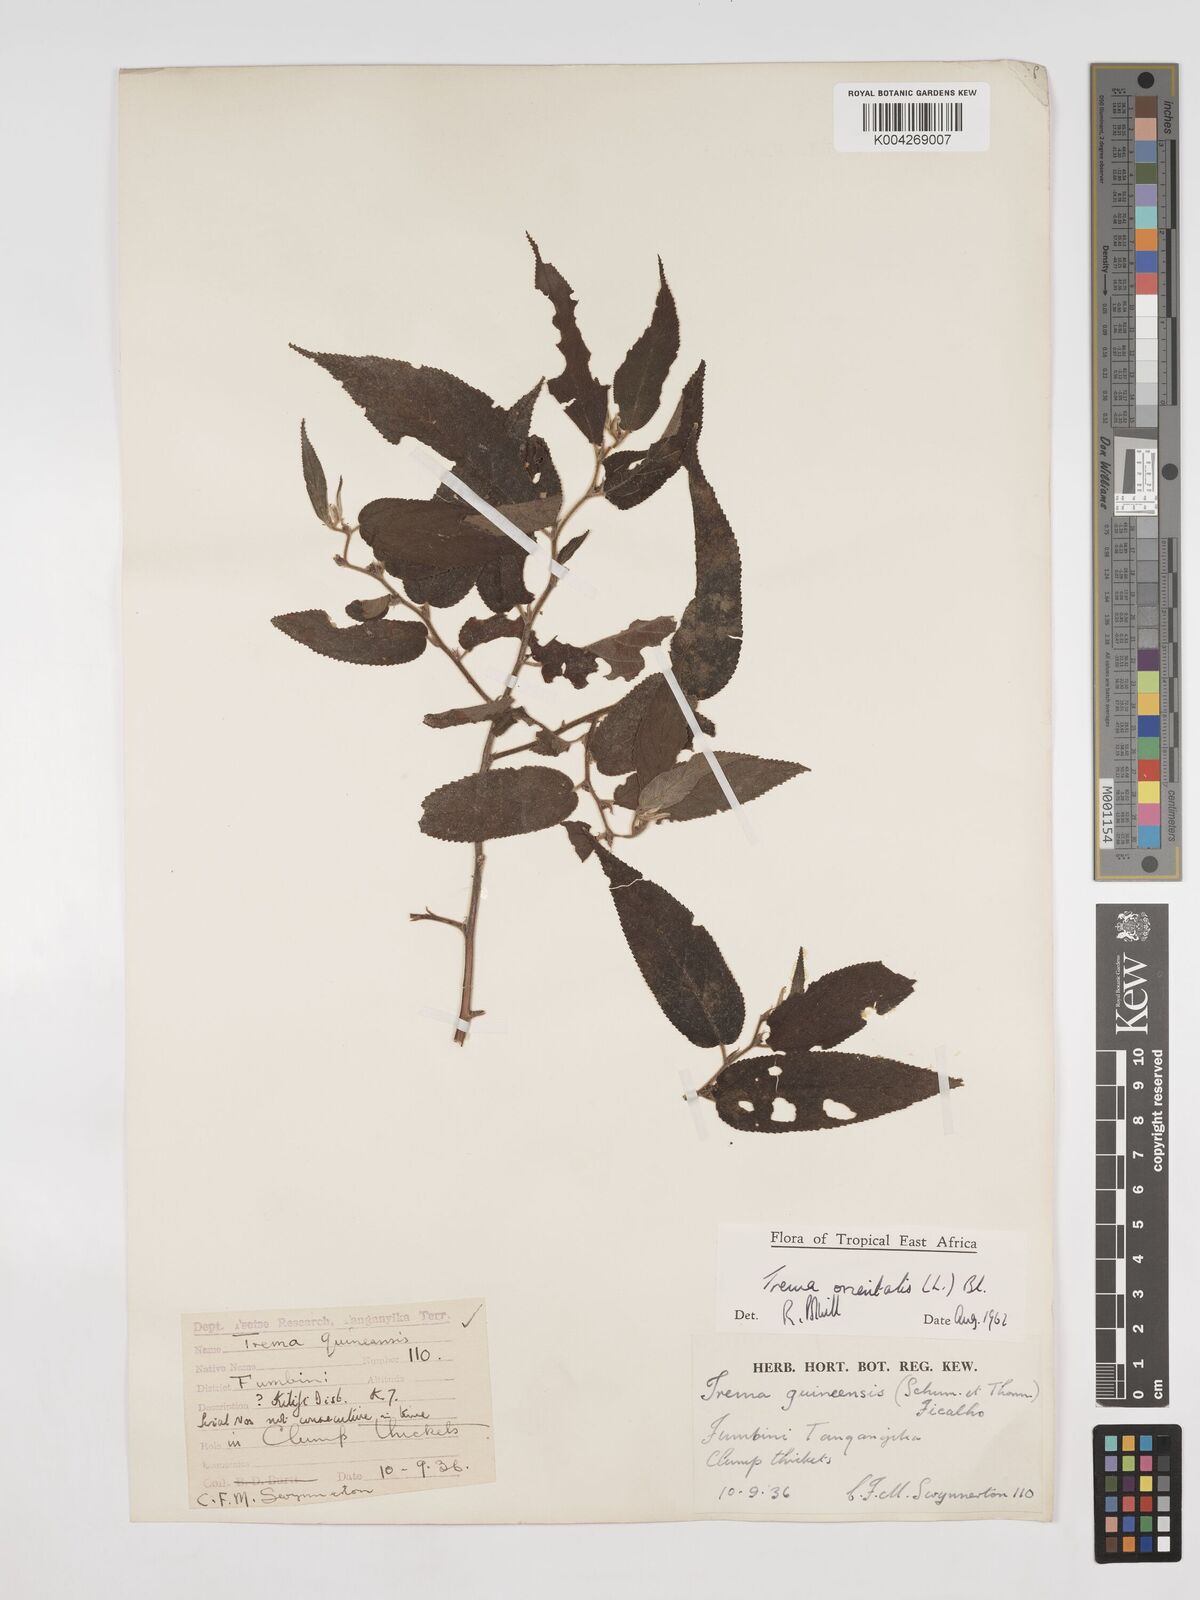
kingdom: Plantae
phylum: Tracheophyta
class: Magnoliopsida
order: Rosales
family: Cannabaceae
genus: Trema
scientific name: Trema orientale
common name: Indian charcoal tree
